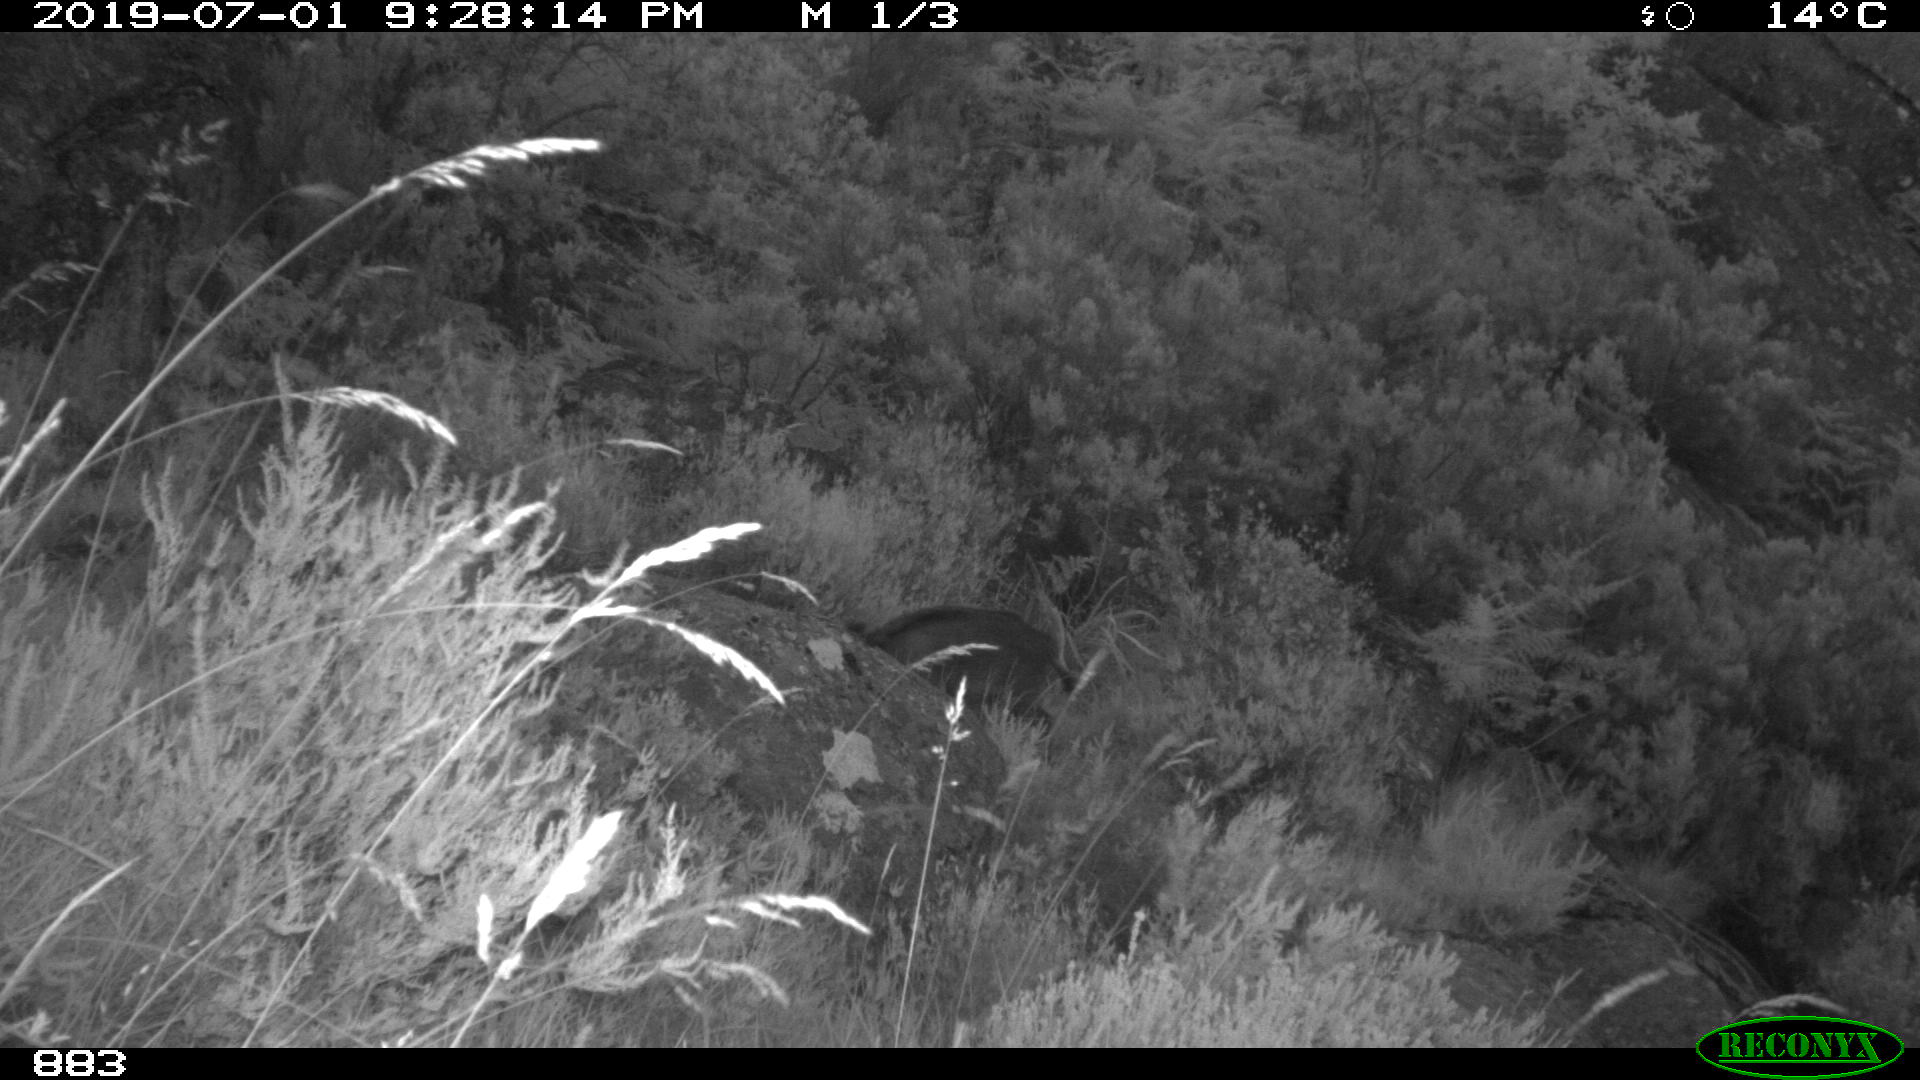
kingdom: Animalia
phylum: Chordata
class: Mammalia
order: Artiodactyla
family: Suidae
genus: Sus
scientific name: Sus scrofa
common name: Wild boar
